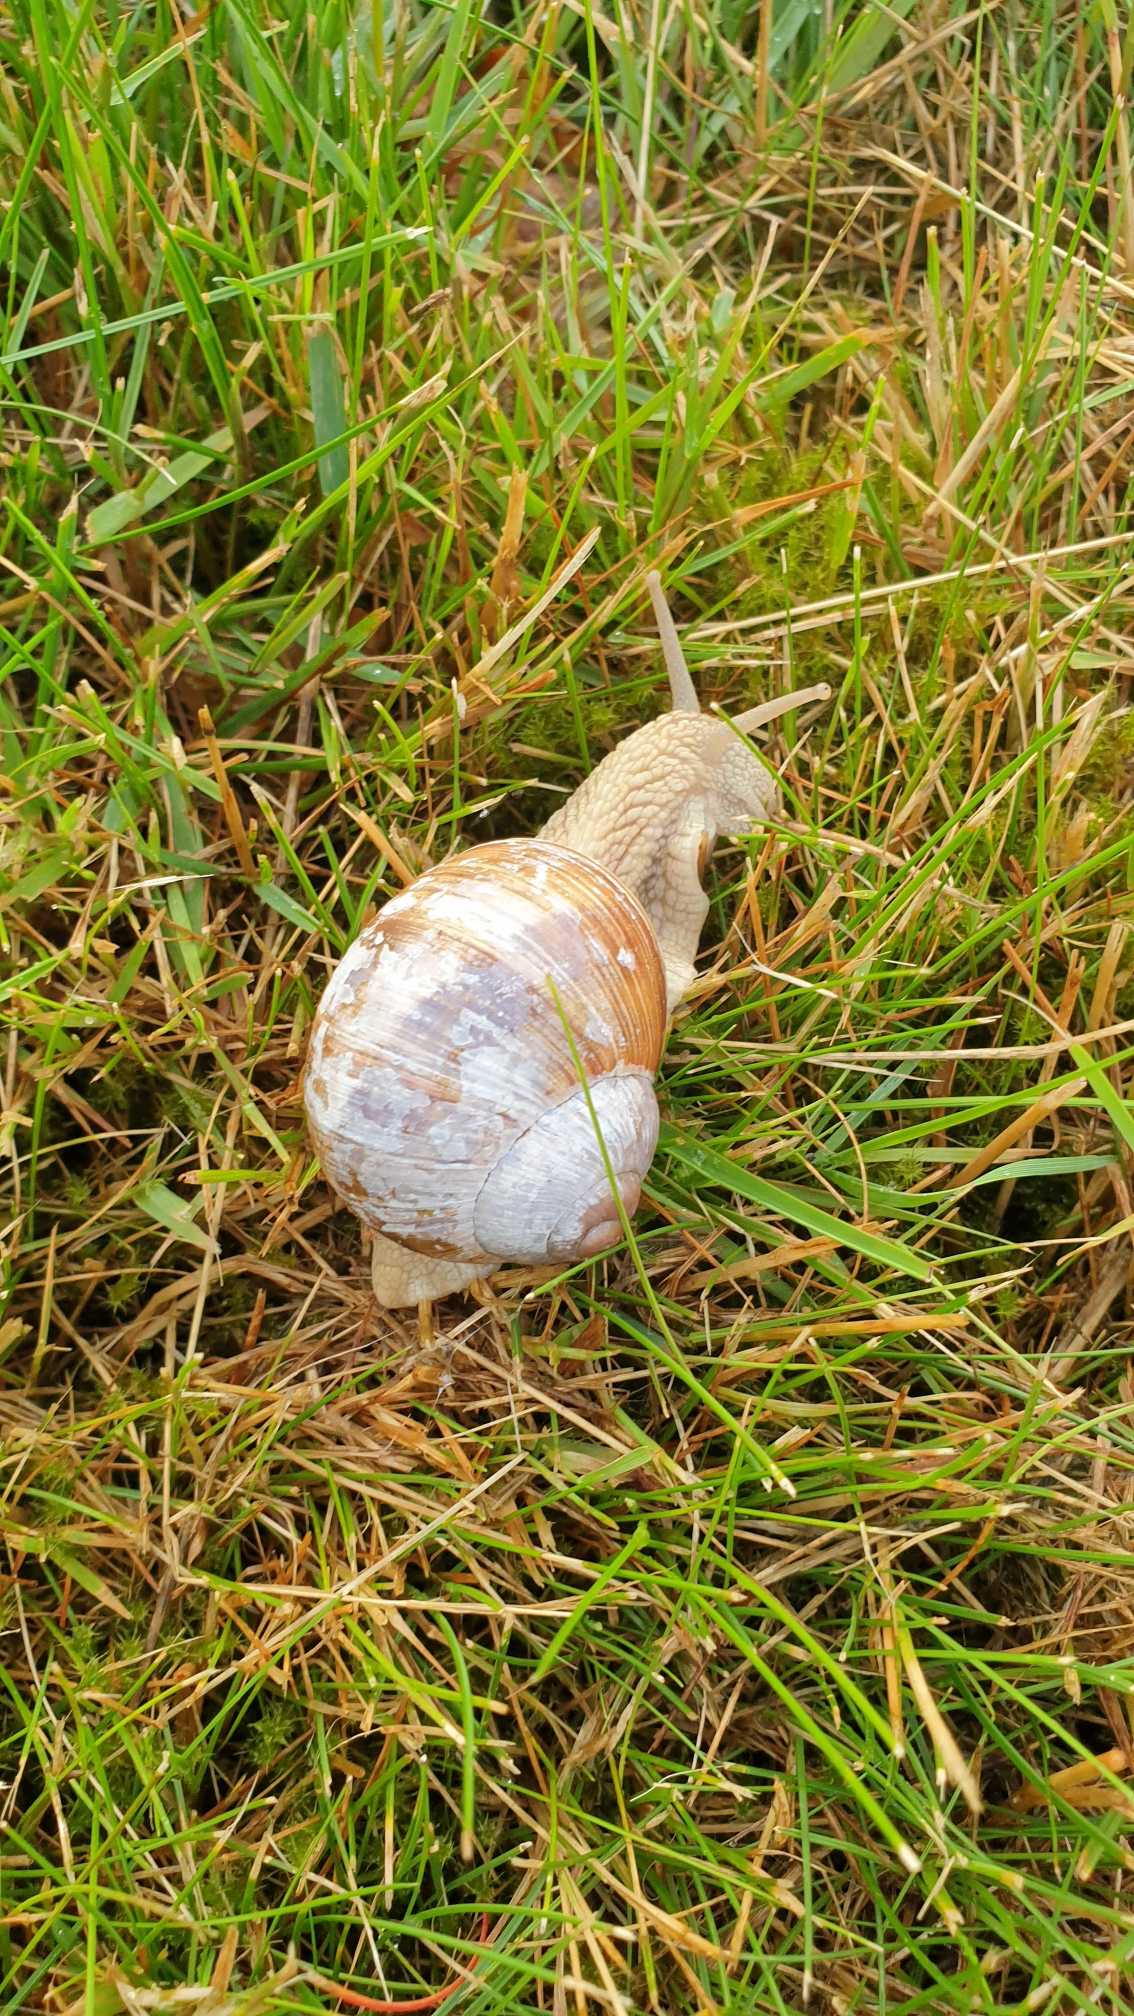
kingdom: Animalia
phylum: Mollusca
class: Gastropoda
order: Stylommatophora
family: Helicidae
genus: Helix
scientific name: Helix pomatia
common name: Vinbjergsnegl
